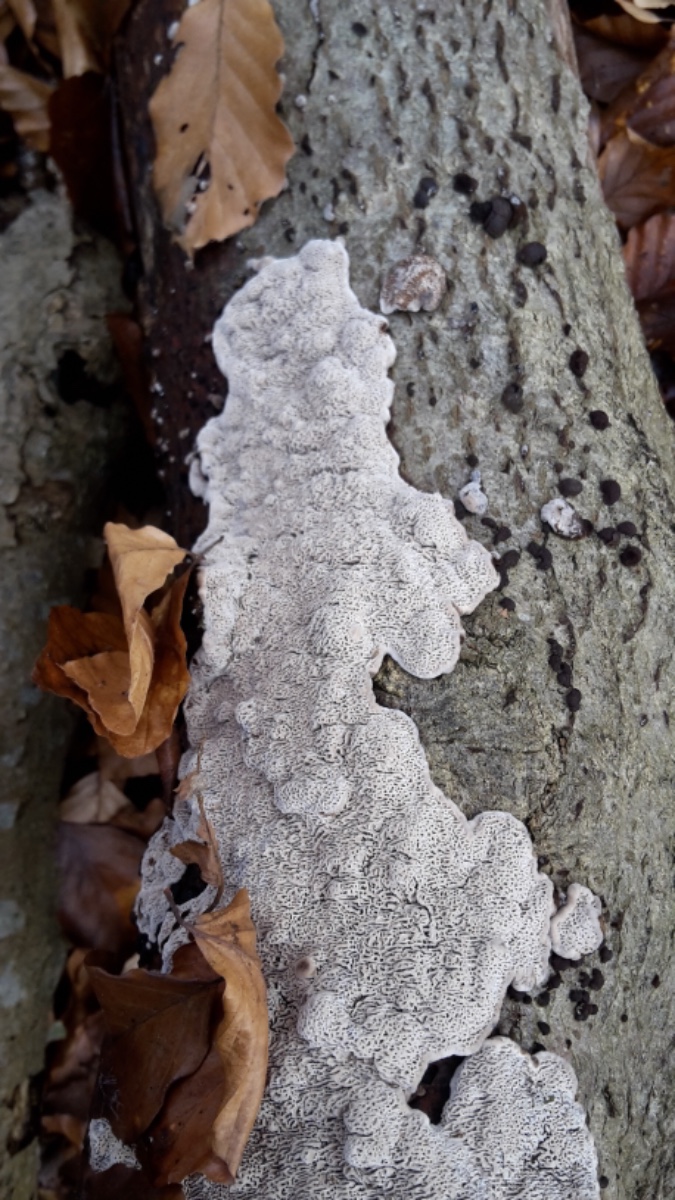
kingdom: Fungi
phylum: Basidiomycota
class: Agaricomycetes
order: Polyporales
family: Polyporaceae
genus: Podofomes
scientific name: Podofomes mollis
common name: blød begporesvamp
